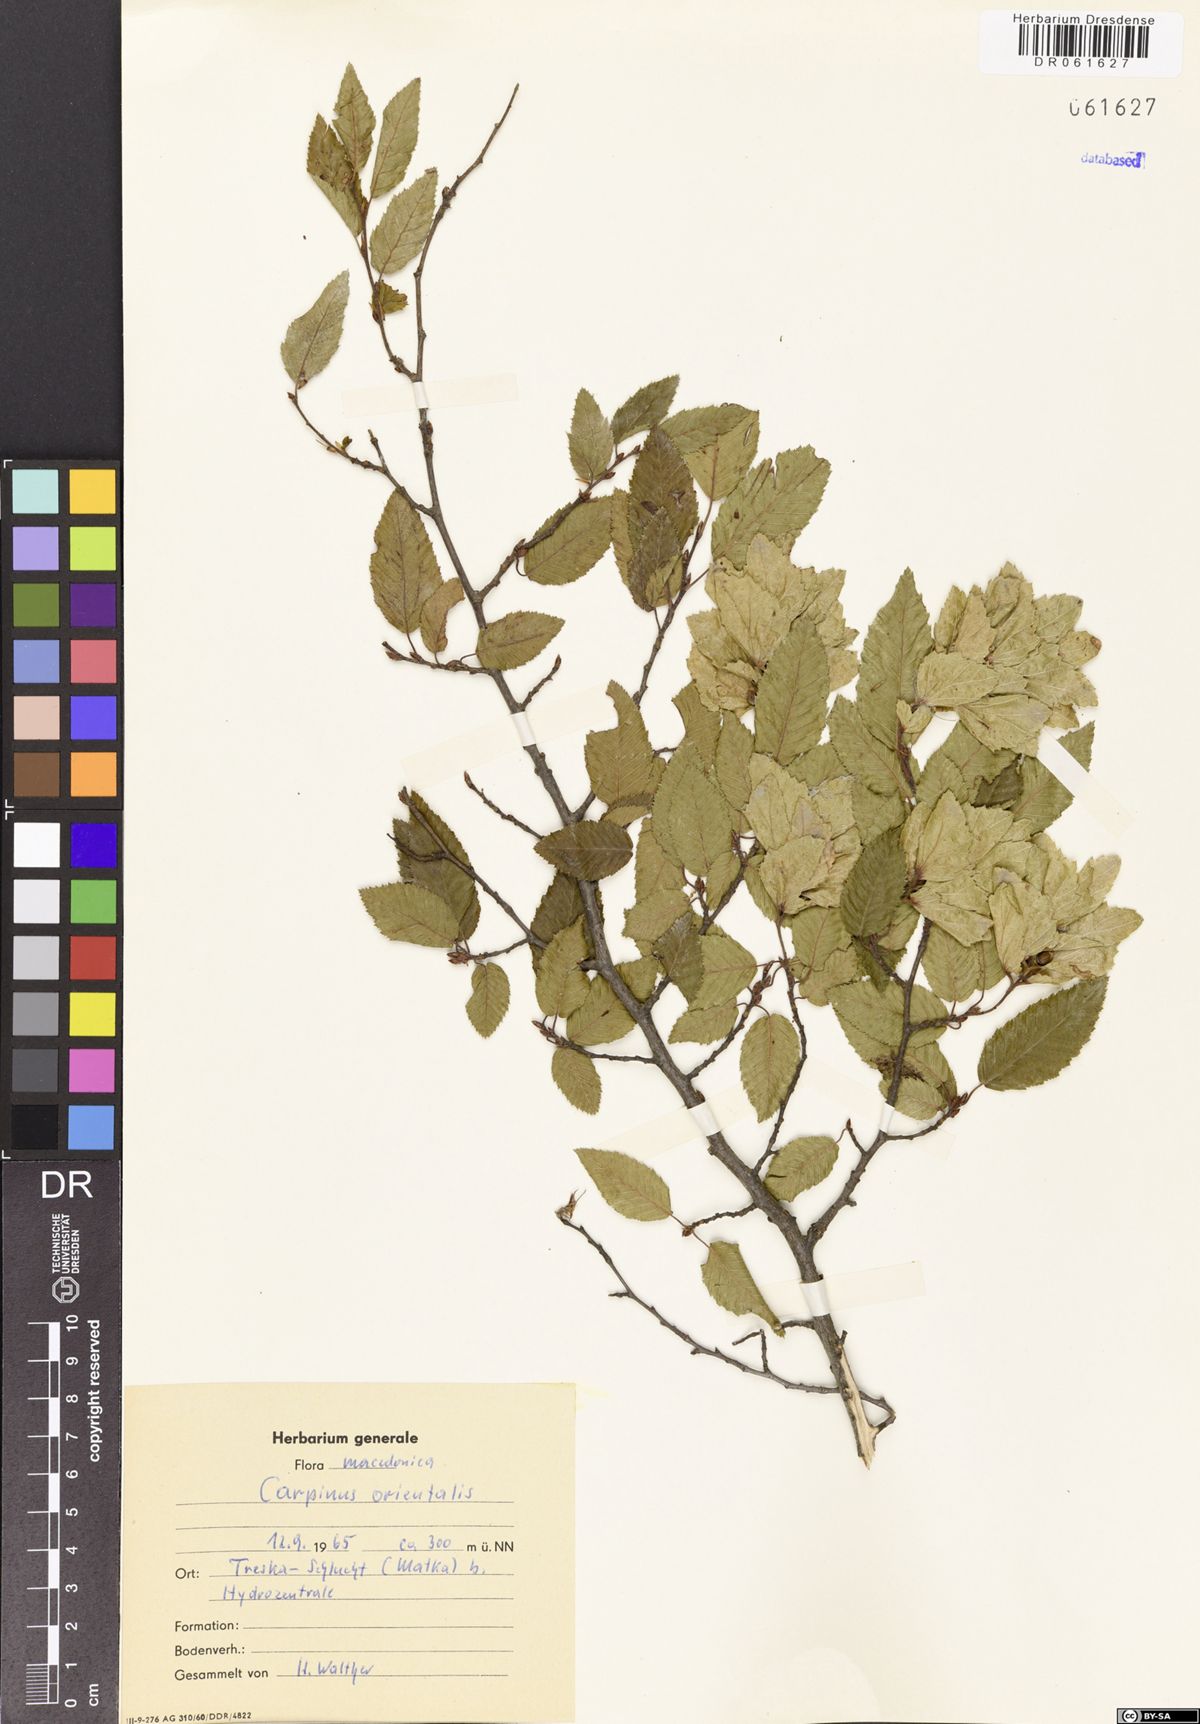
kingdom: Plantae
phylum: Tracheophyta
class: Magnoliopsida
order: Fagales
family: Betulaceae
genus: Carpinus
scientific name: Carpinus orientalis
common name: Eastern hornbeam
